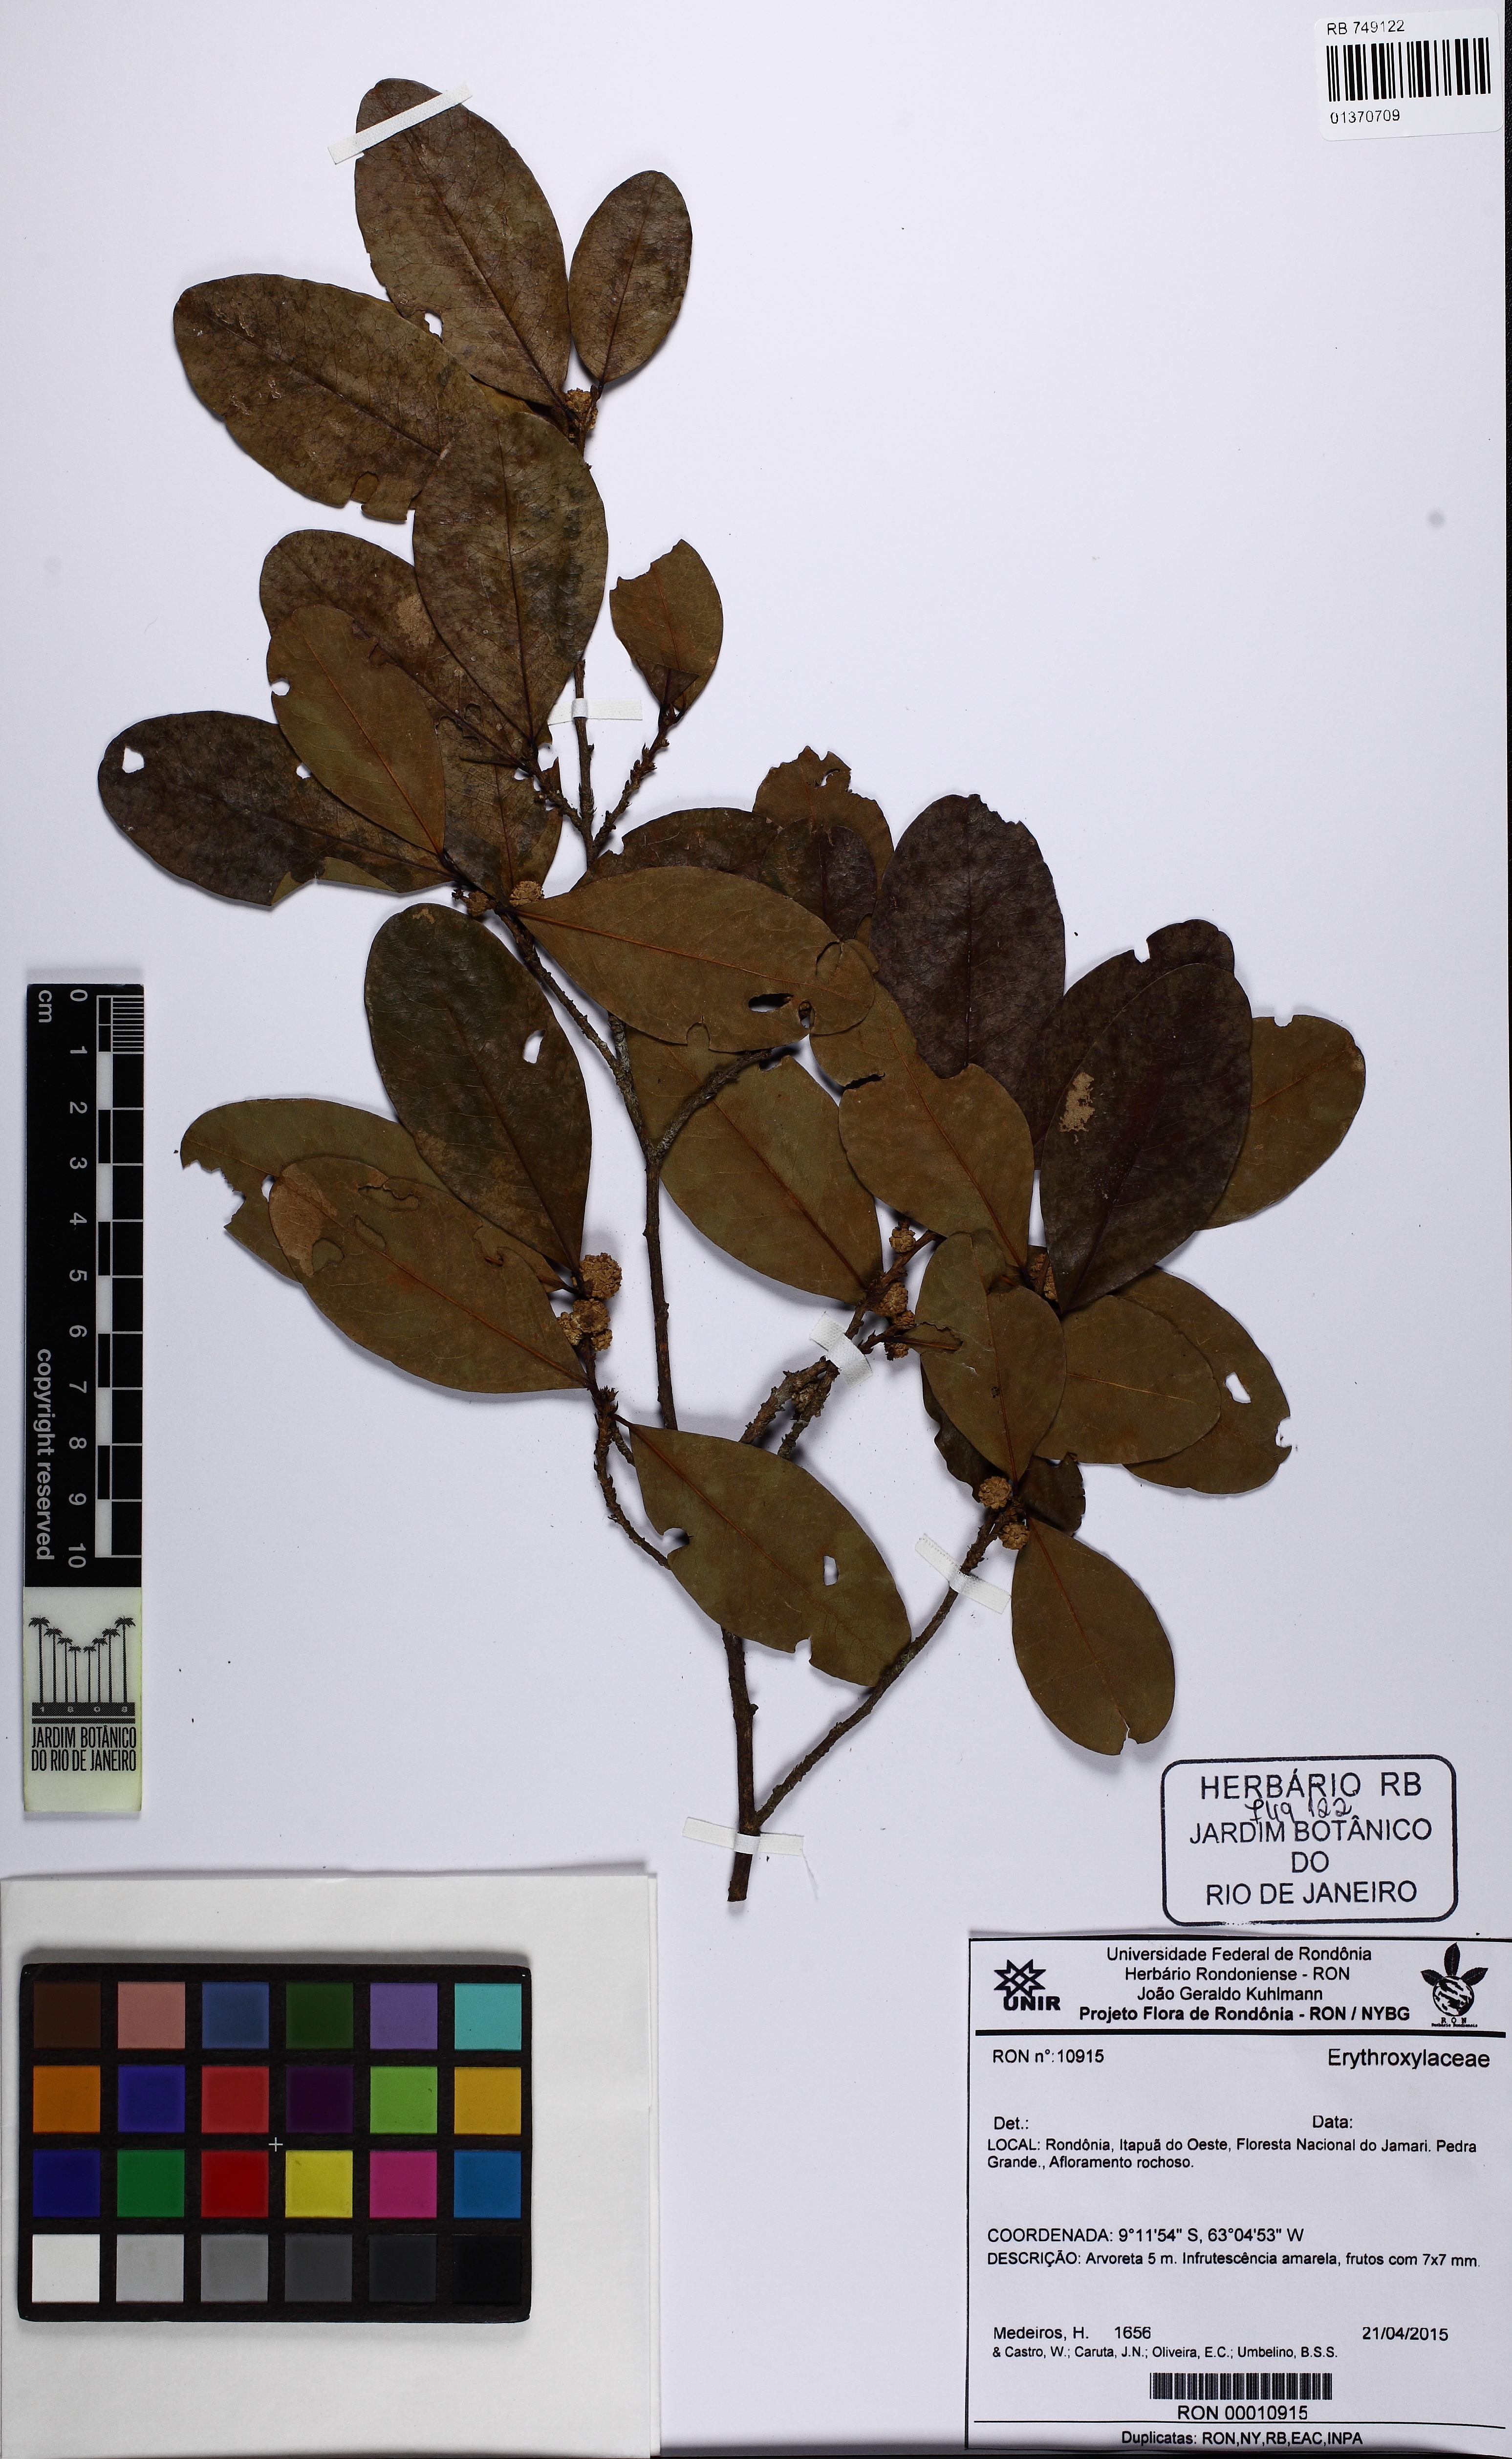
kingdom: Plantae
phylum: Tracheophyta
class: Magnoliopsida
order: Malpighiales
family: Erythroxylaceae
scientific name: Erythroxylaceae
